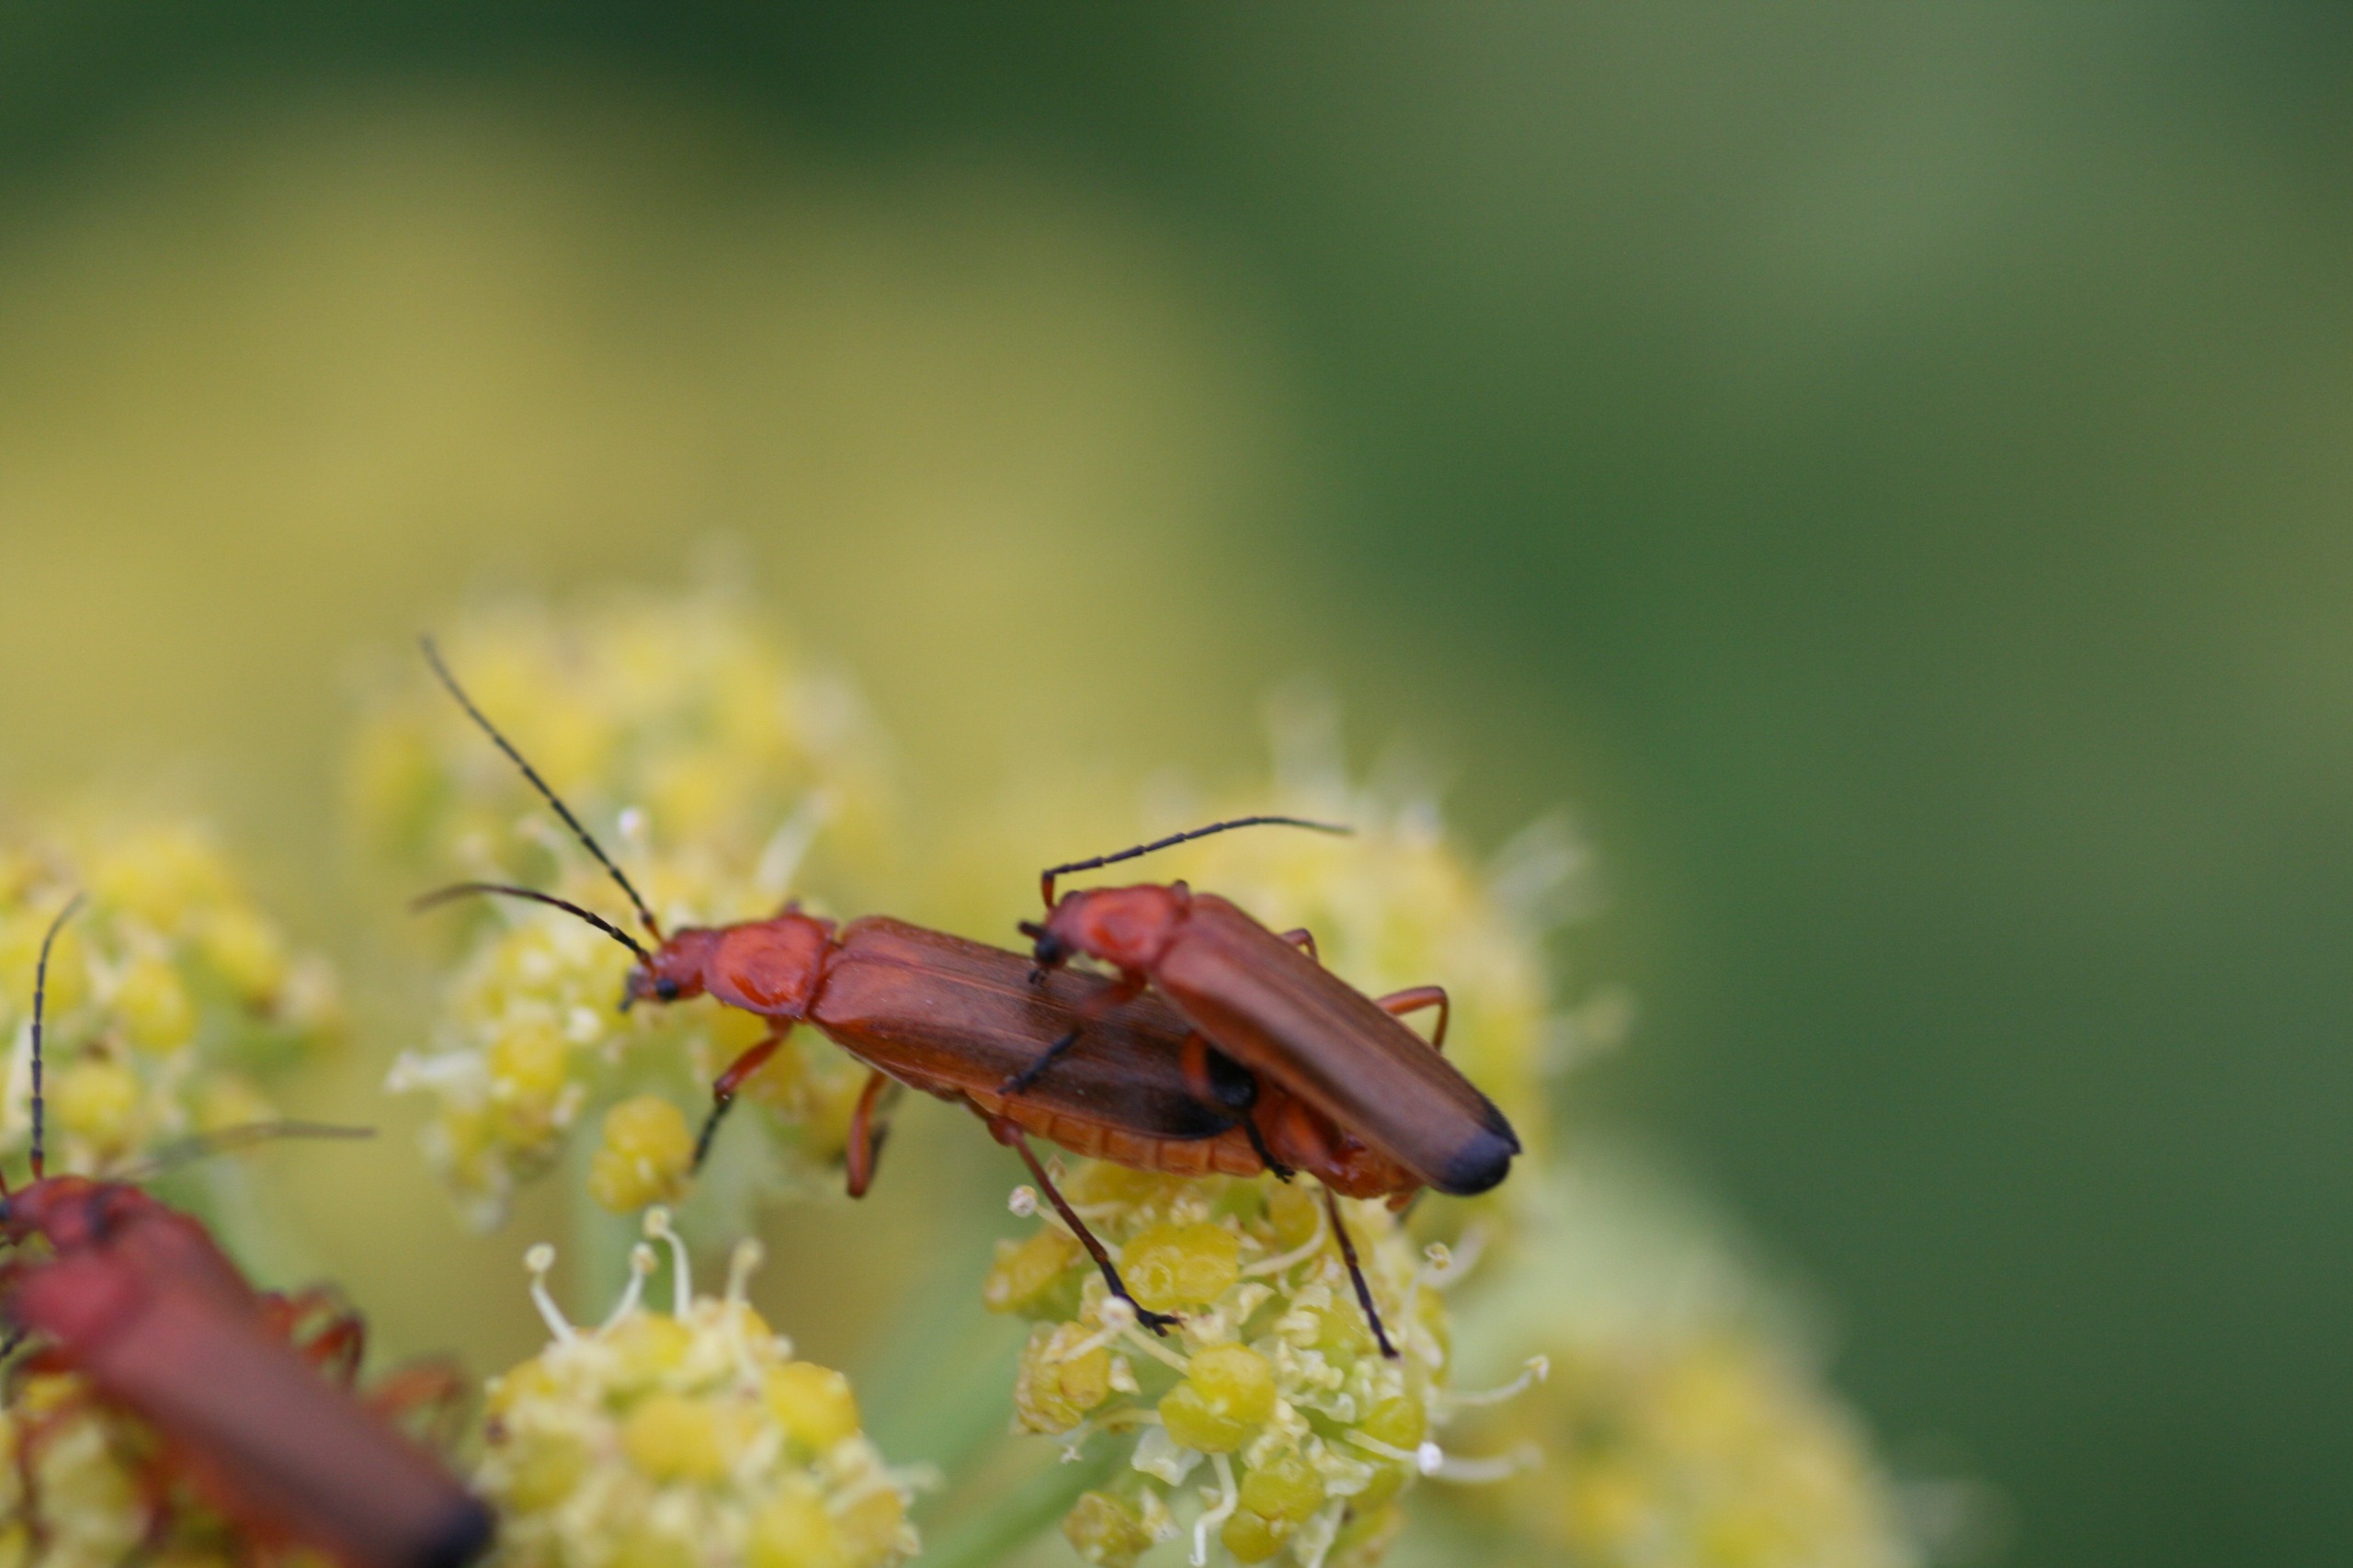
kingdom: Animalia
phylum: Arthropoda
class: Insecta
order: Coleoptera
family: Cantharidae
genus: Rhagonycha
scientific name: Rhagonycha fulva
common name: Præstebille
